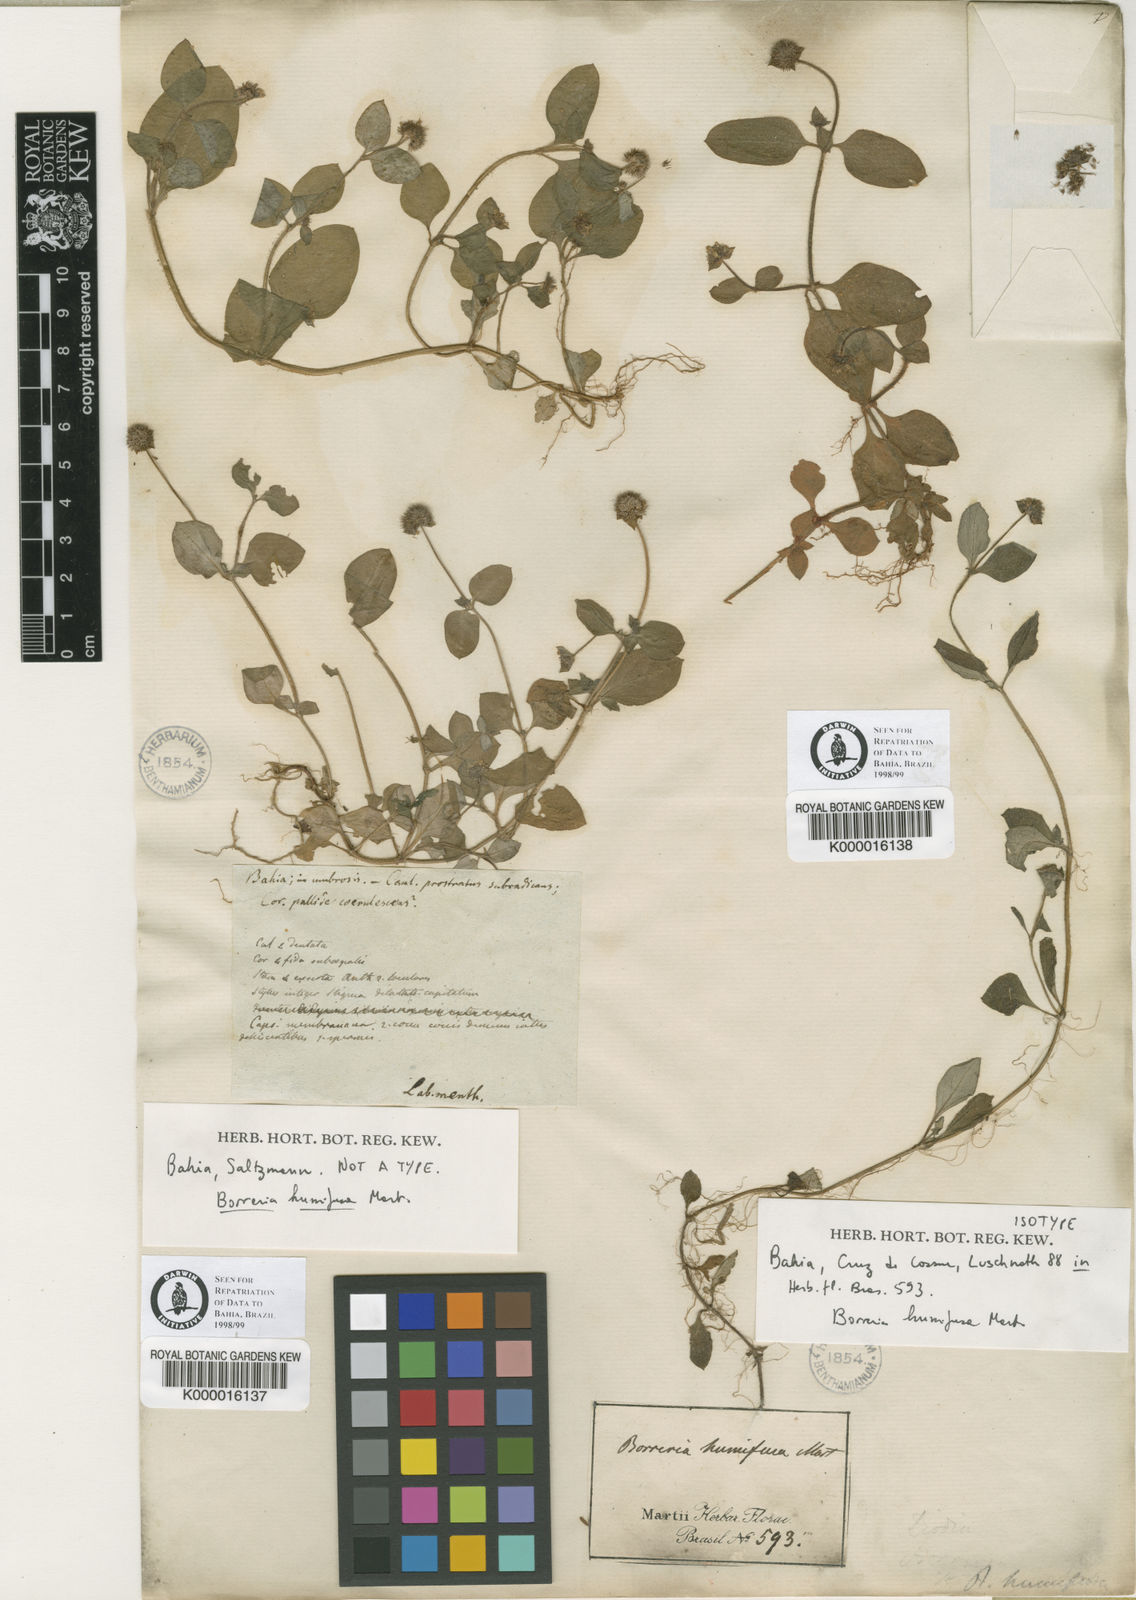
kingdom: Plantae
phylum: Tracheophyta
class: Magnoliopsida
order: Gentianales
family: Rubiaceae
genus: Spermacoce
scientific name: Spermacoce
